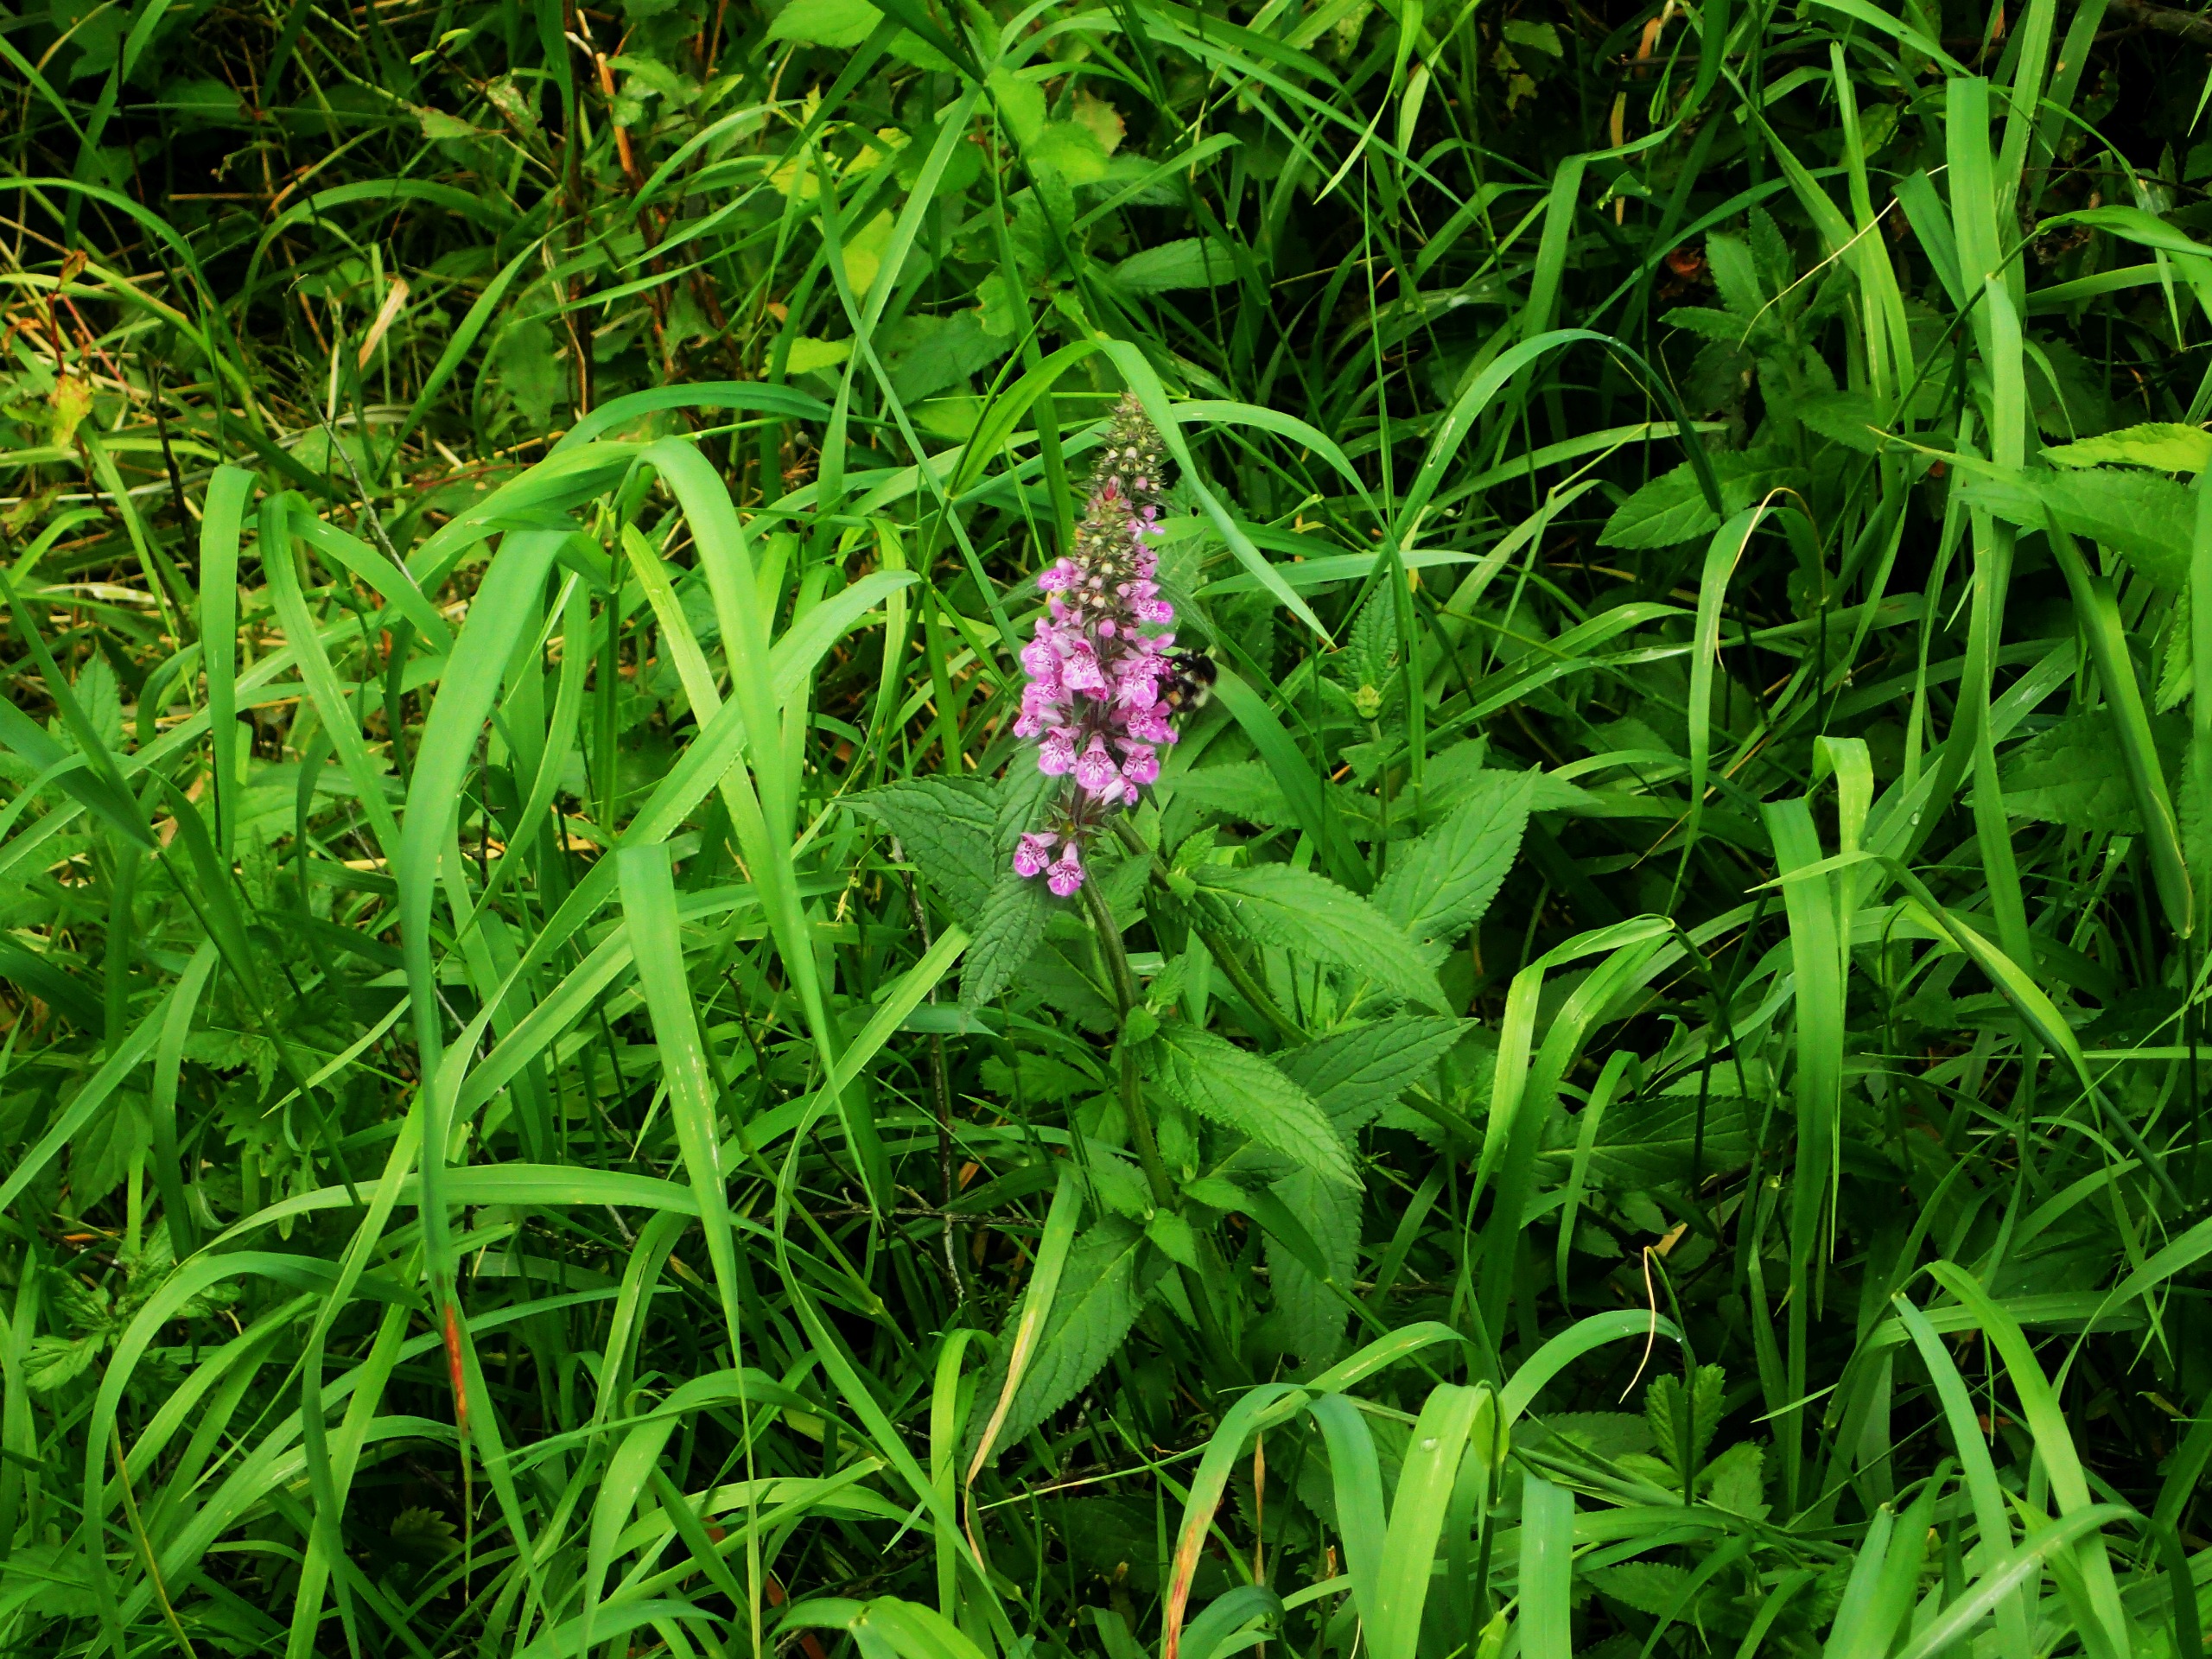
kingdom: Plantae
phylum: Tracheophyta
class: Magnoliopsida
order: Lamiales
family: Lamiaceae
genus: Stachys
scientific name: Stachys palustris
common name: Kær-galtetand
